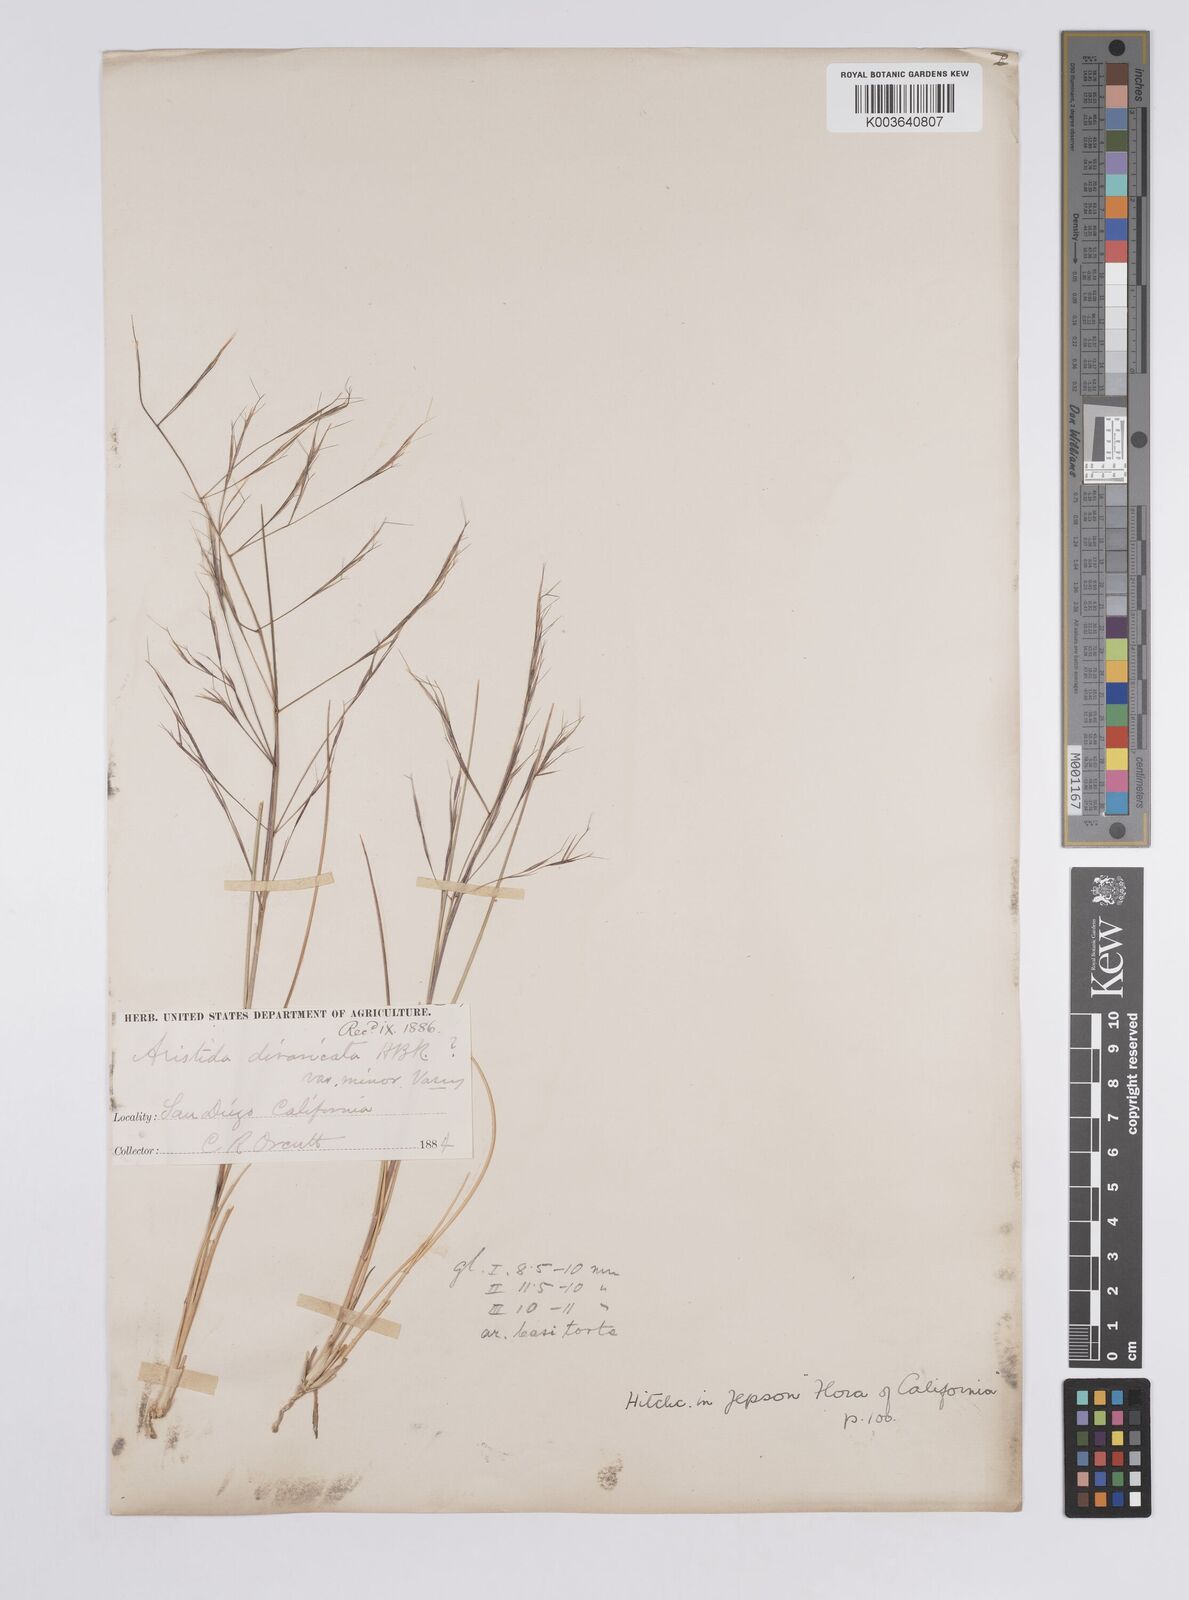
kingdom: Plantae
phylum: Tracheophyta
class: Liliopsida
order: Poales
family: Poaceae
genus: Aristida
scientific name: Aristida laxa
